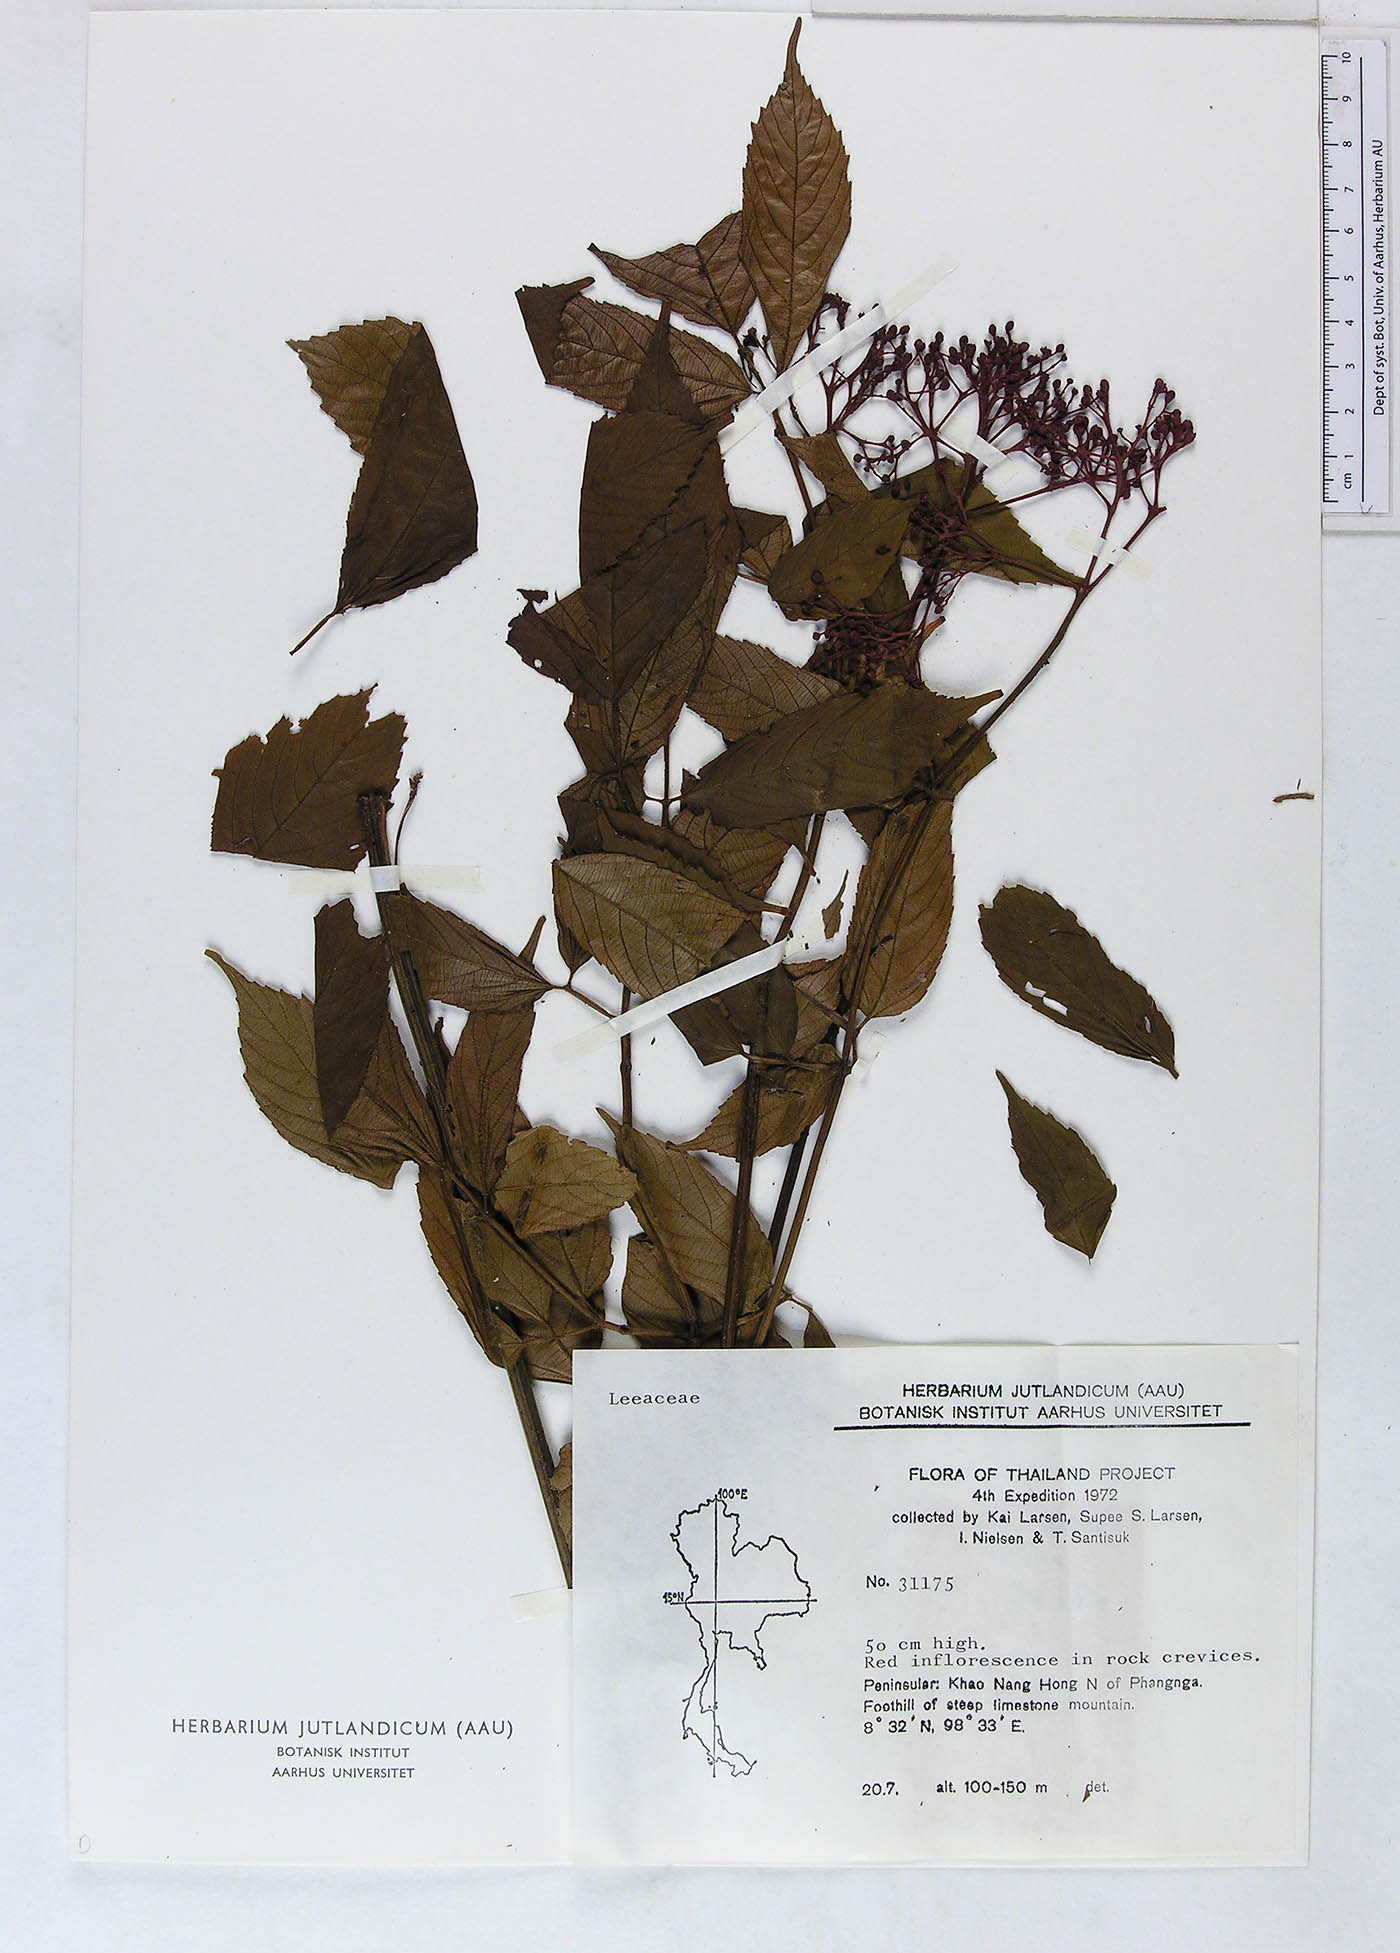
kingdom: Plantae
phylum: Tracheophyta
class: Magnoliopsida
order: Vitales
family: Vitaceae
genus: Leea
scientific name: Leea setuligera
